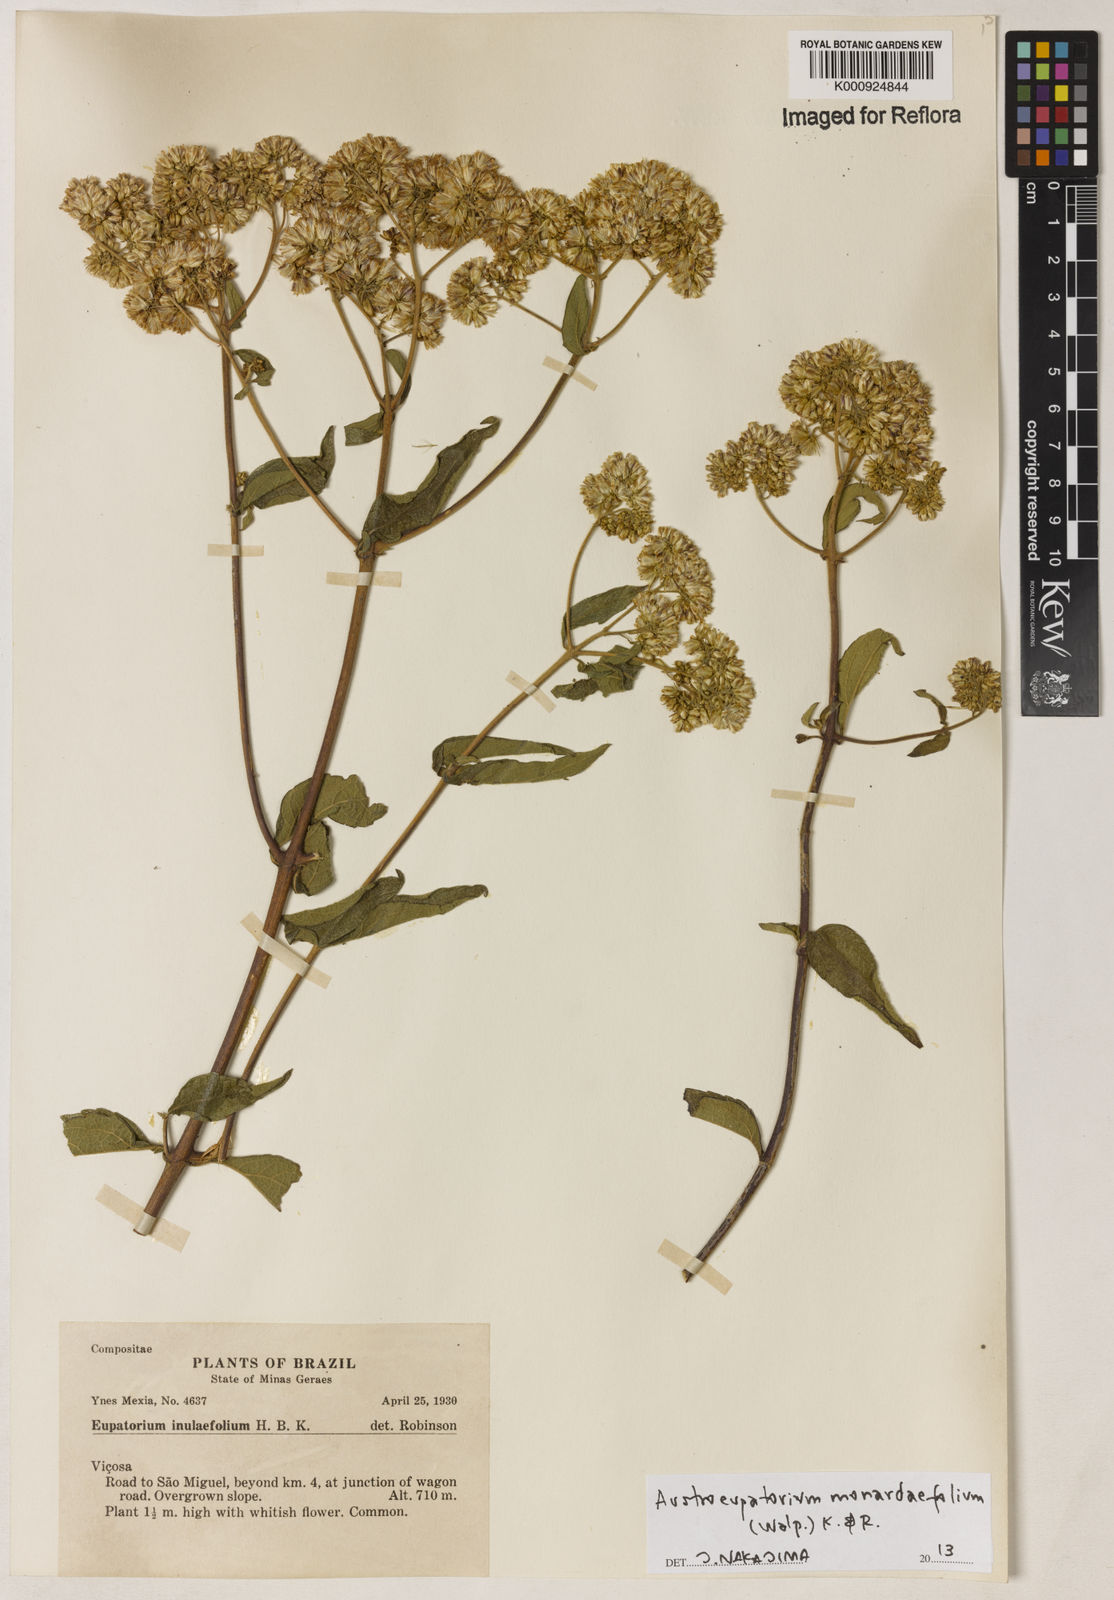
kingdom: Plantae
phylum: Tracheophyta
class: Magnoliopsida
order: Asterales
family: Asteraceae
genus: Austroeupatorium
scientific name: Austroeupatorium
